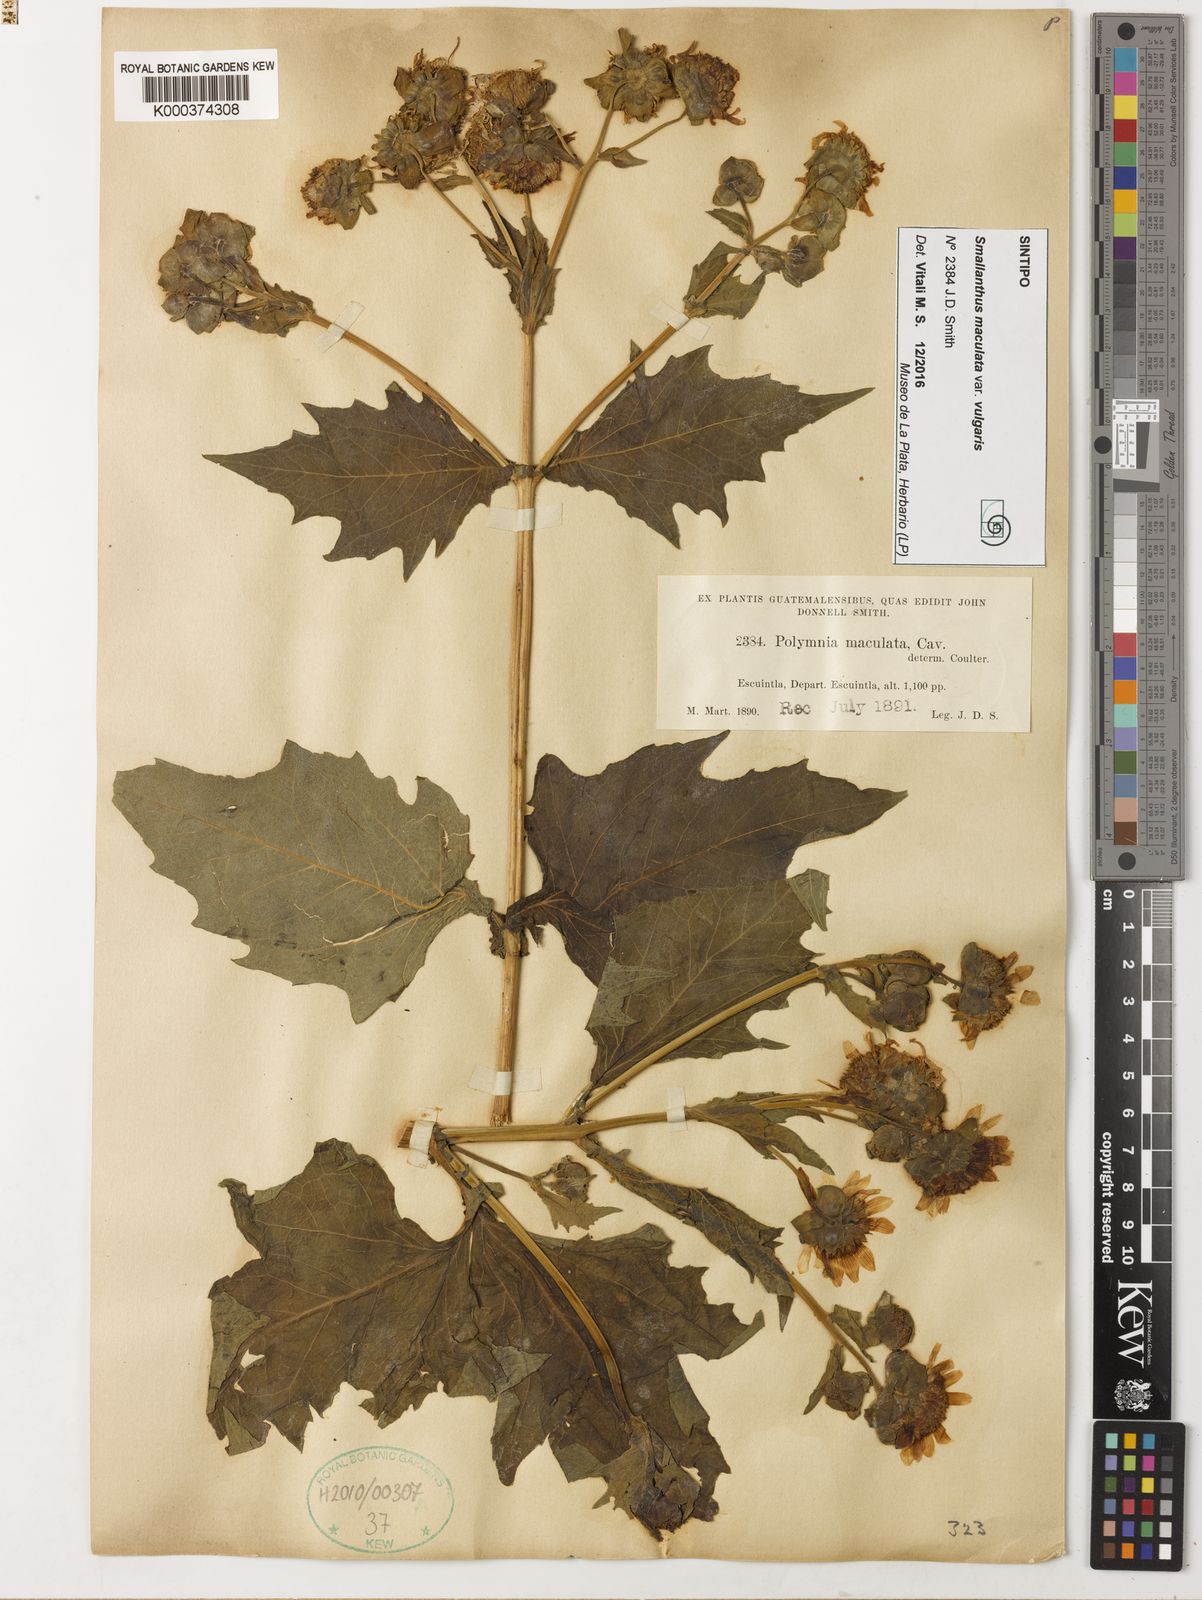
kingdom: Plantae
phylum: Tracheophyta
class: Magnoliopsida
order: Asterales
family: Asteraceae
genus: Smallanthus
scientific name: Smallanthus maculatus
